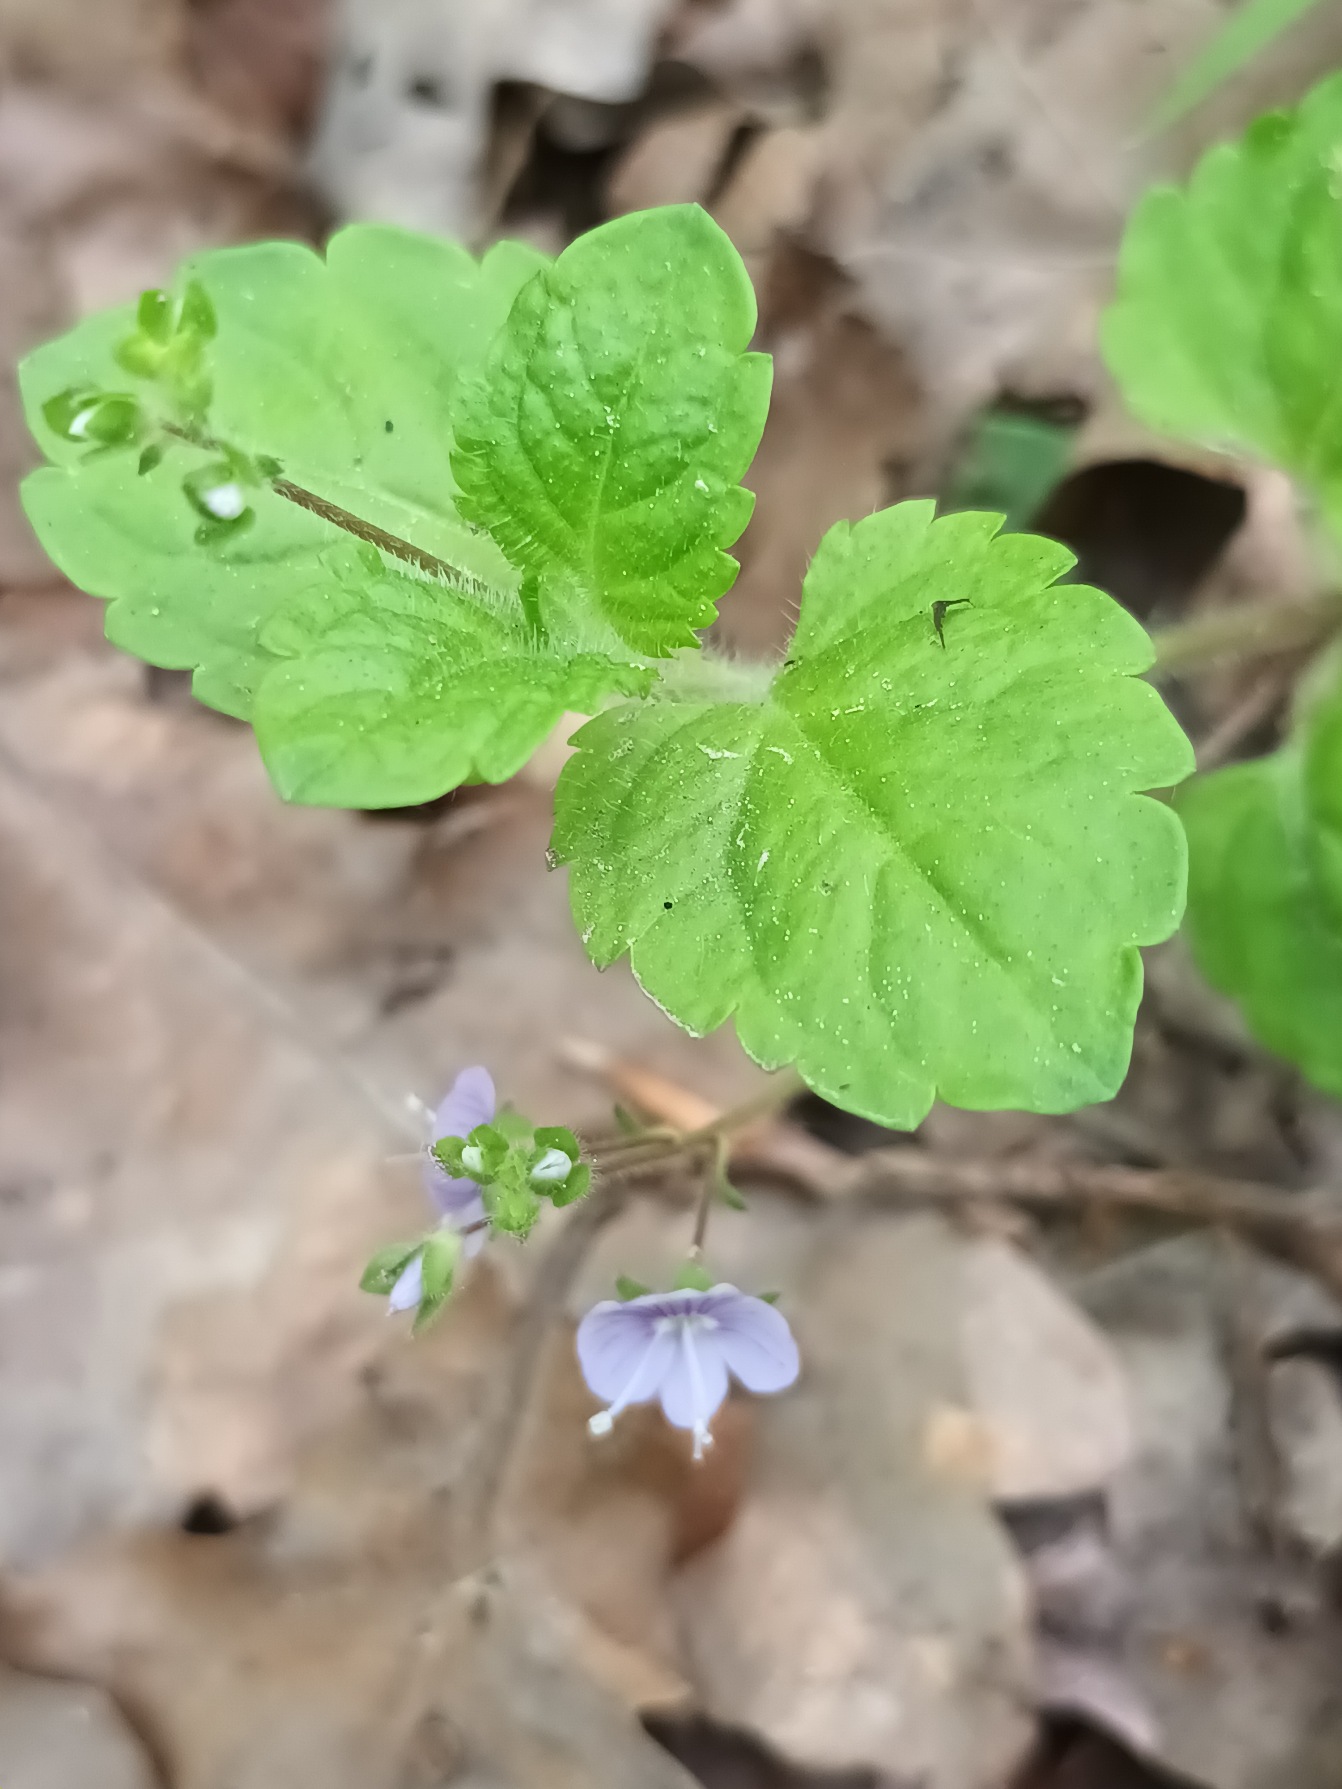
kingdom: Plantae
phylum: Tracheophyta
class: Magnoliopsida
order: Lamiales
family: Plantaginaceae
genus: Veronica
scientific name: Veronica montana
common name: Bjerg-ærenpris
